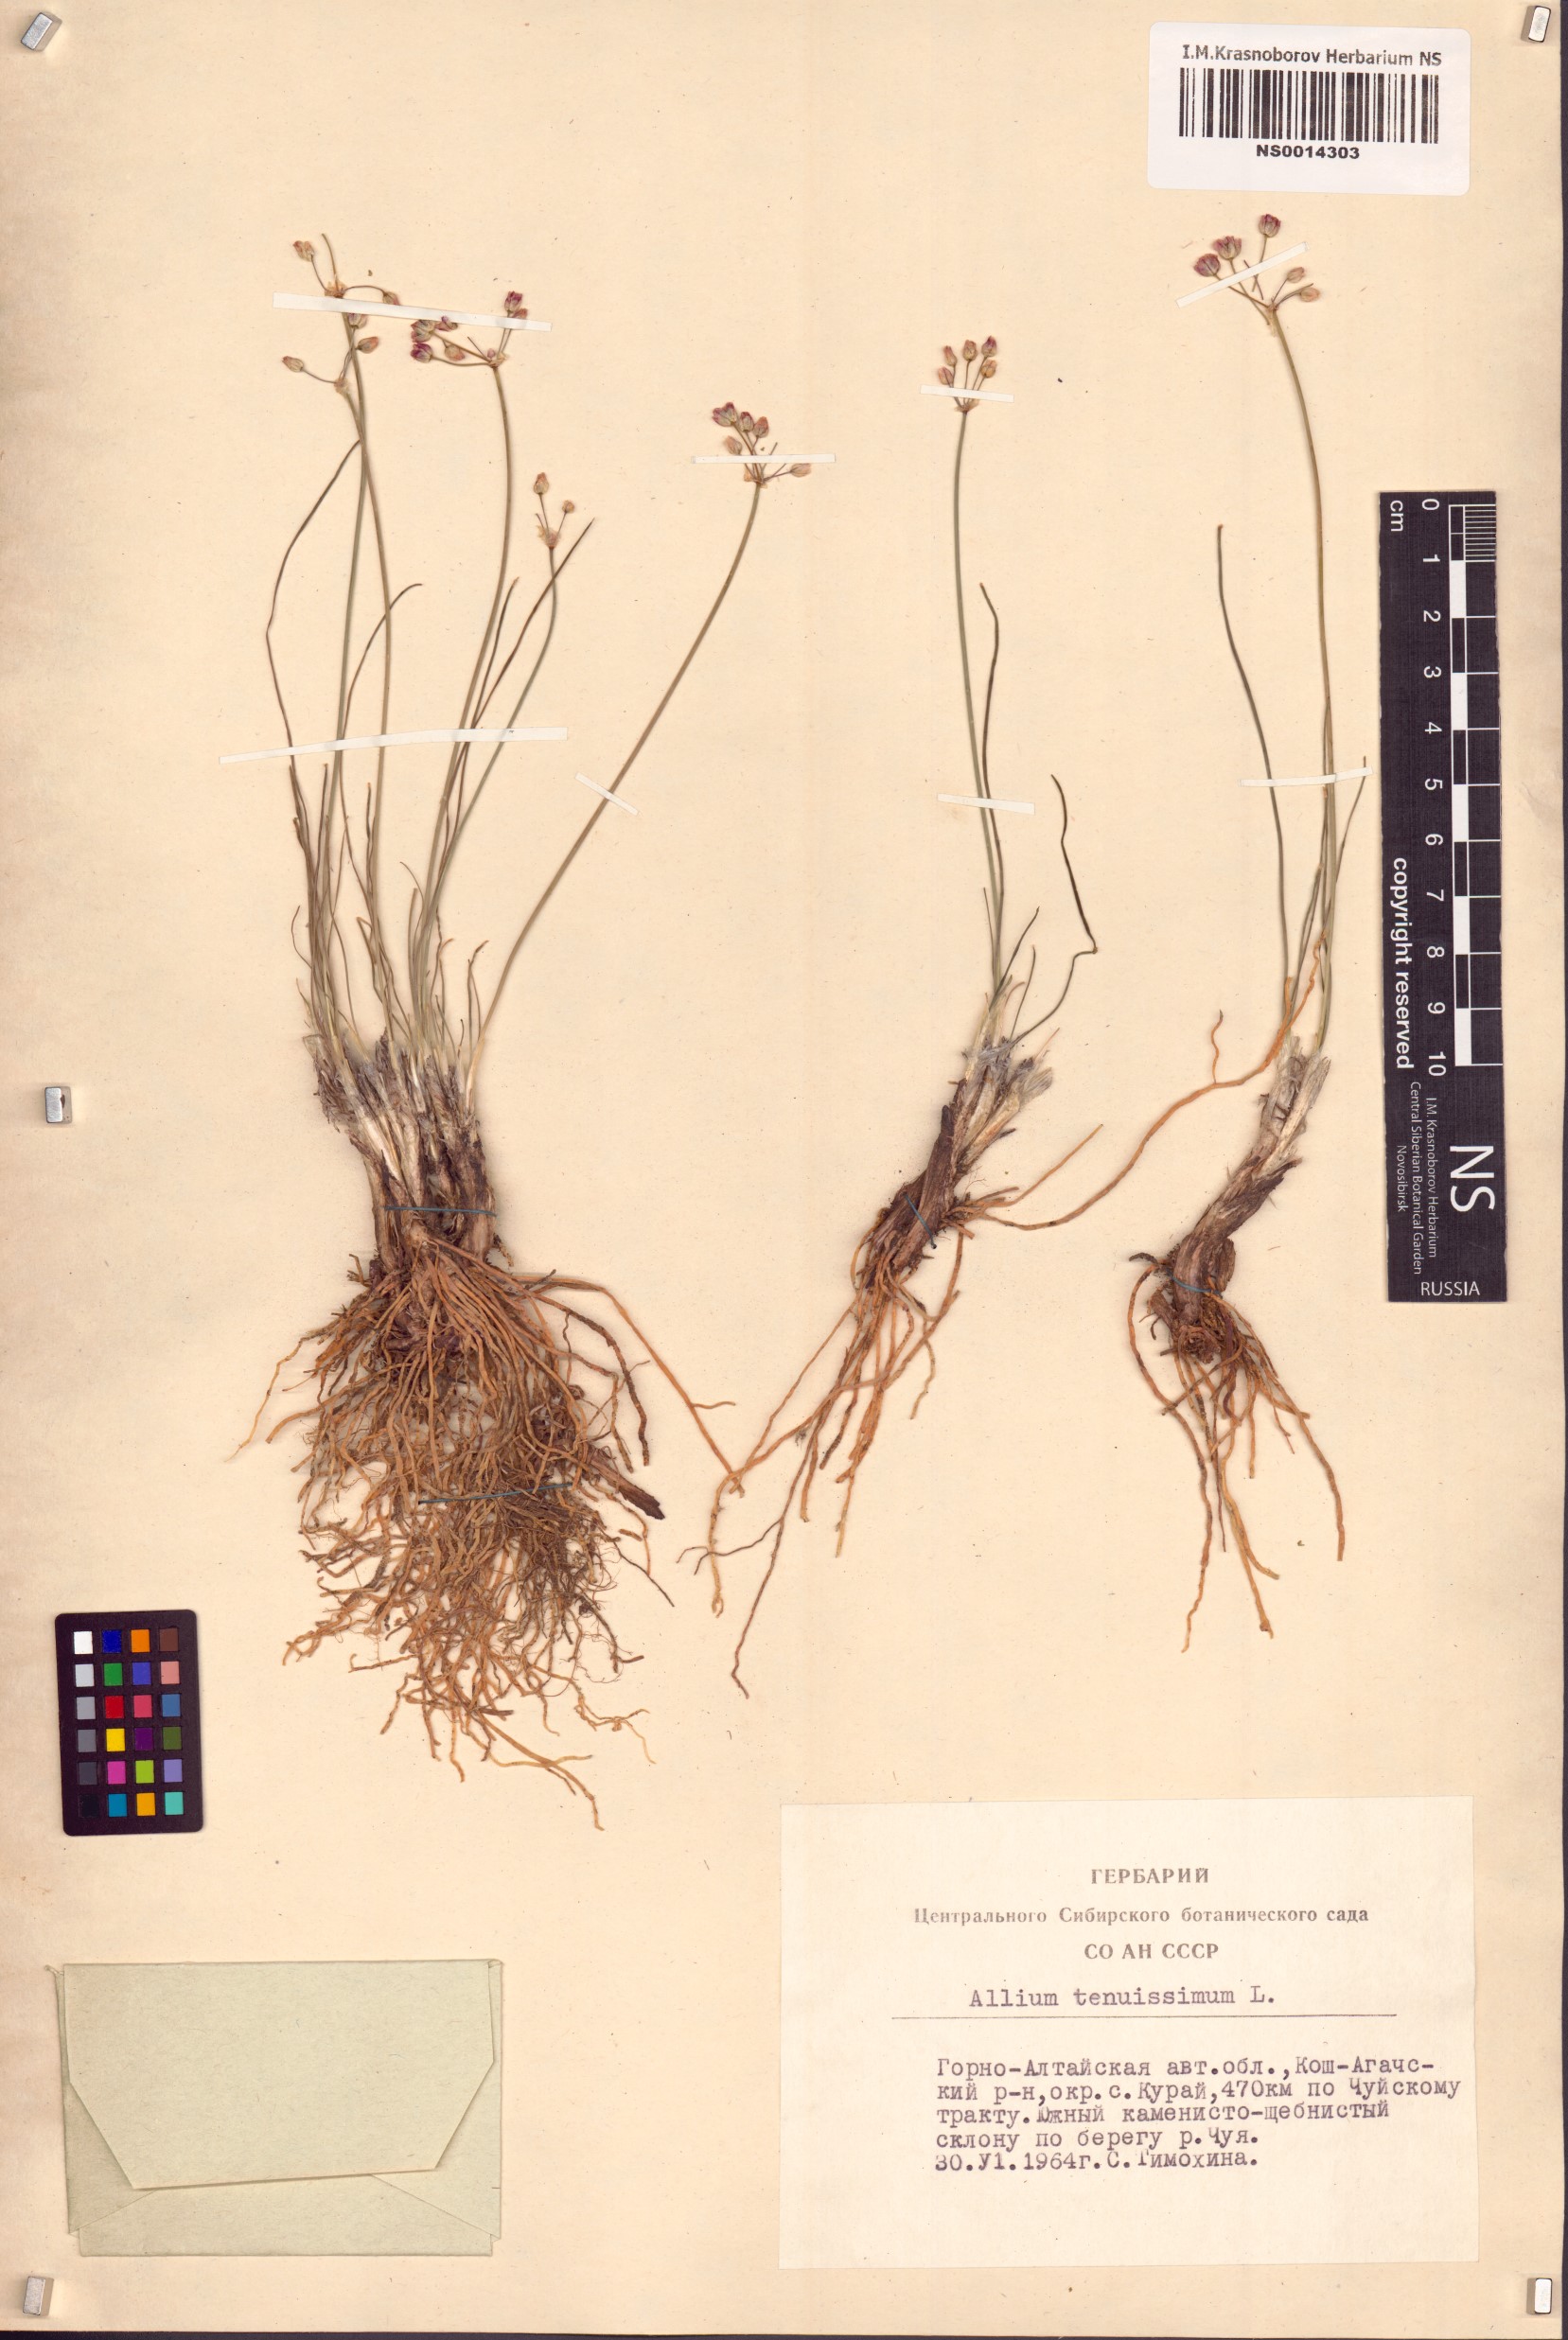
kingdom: Plantae
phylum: Tracheophyta
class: Liliopsida
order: Asparagales
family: Amaryllidaceae
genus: Allium
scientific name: Allium tenuissimum
